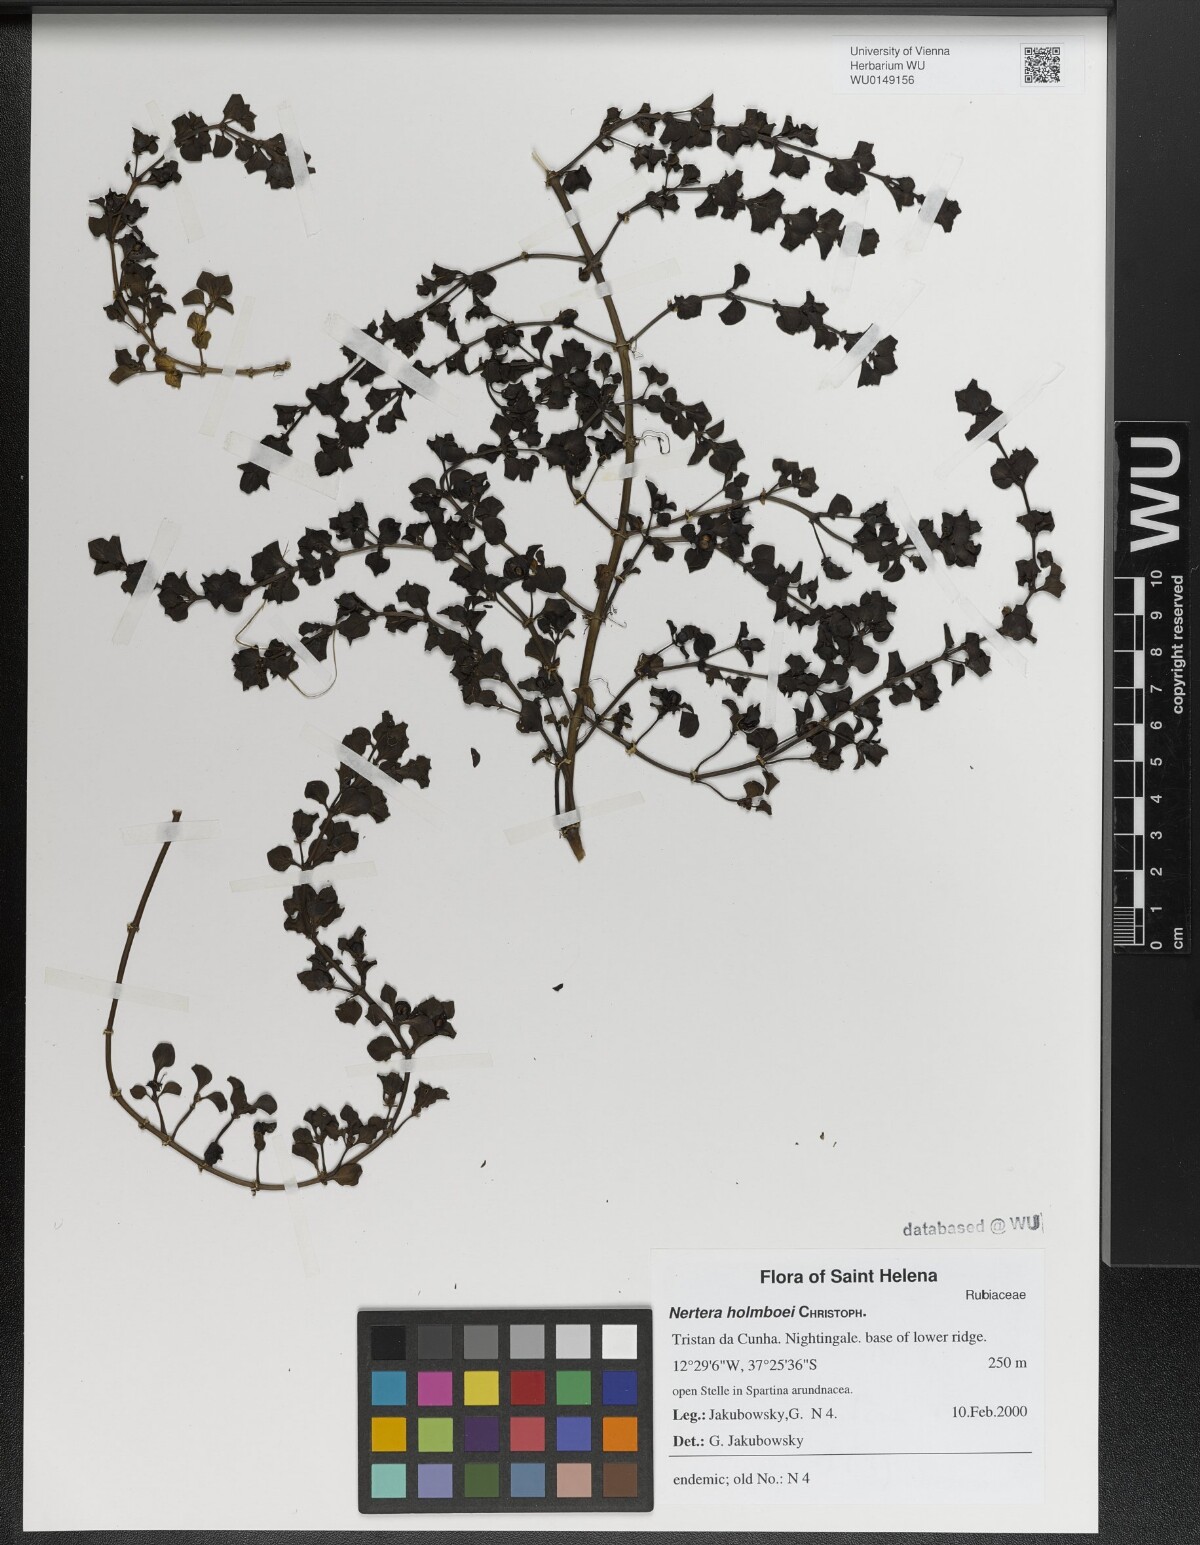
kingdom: Plantae
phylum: Tracheophyta
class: Magnoliopsida
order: Gentianales
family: Rubiaceae
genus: Nertera
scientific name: Nertera holmboei
